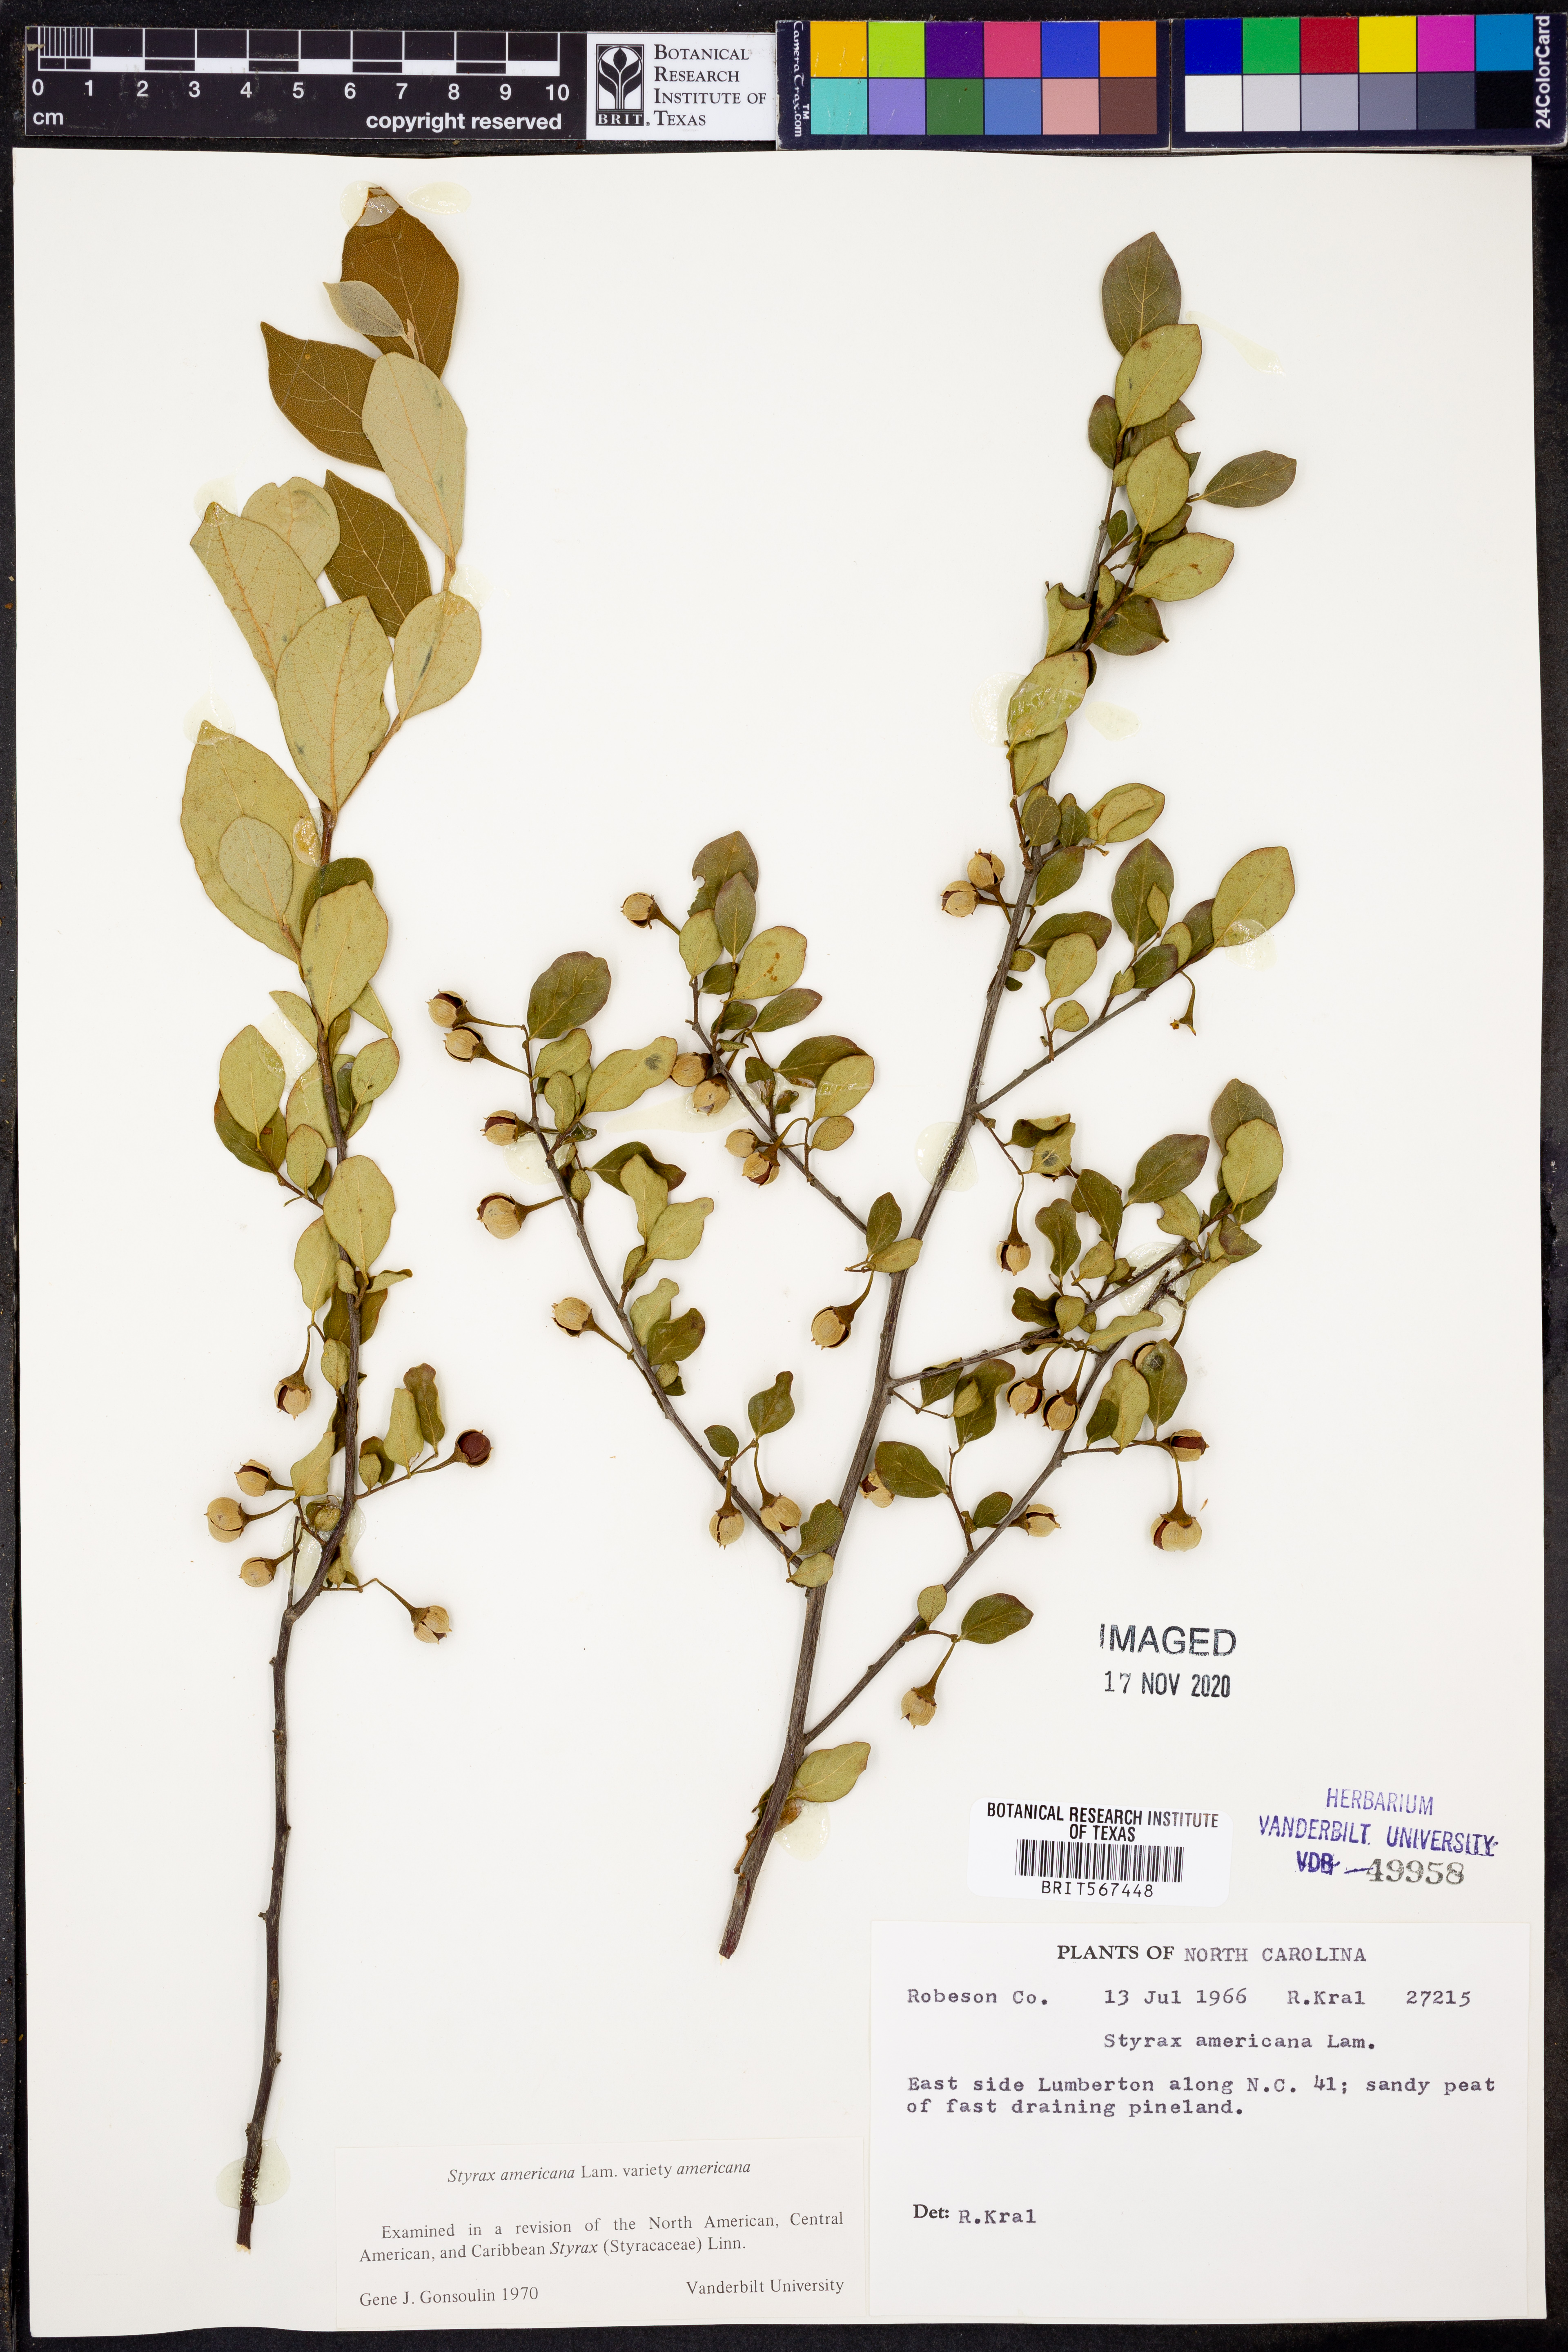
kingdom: Plantae
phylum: Tracheophyta
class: Magnoliopsida
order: Ericales
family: Styracaceae
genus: Styrax
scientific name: Styrax americanus
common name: American snowbell
